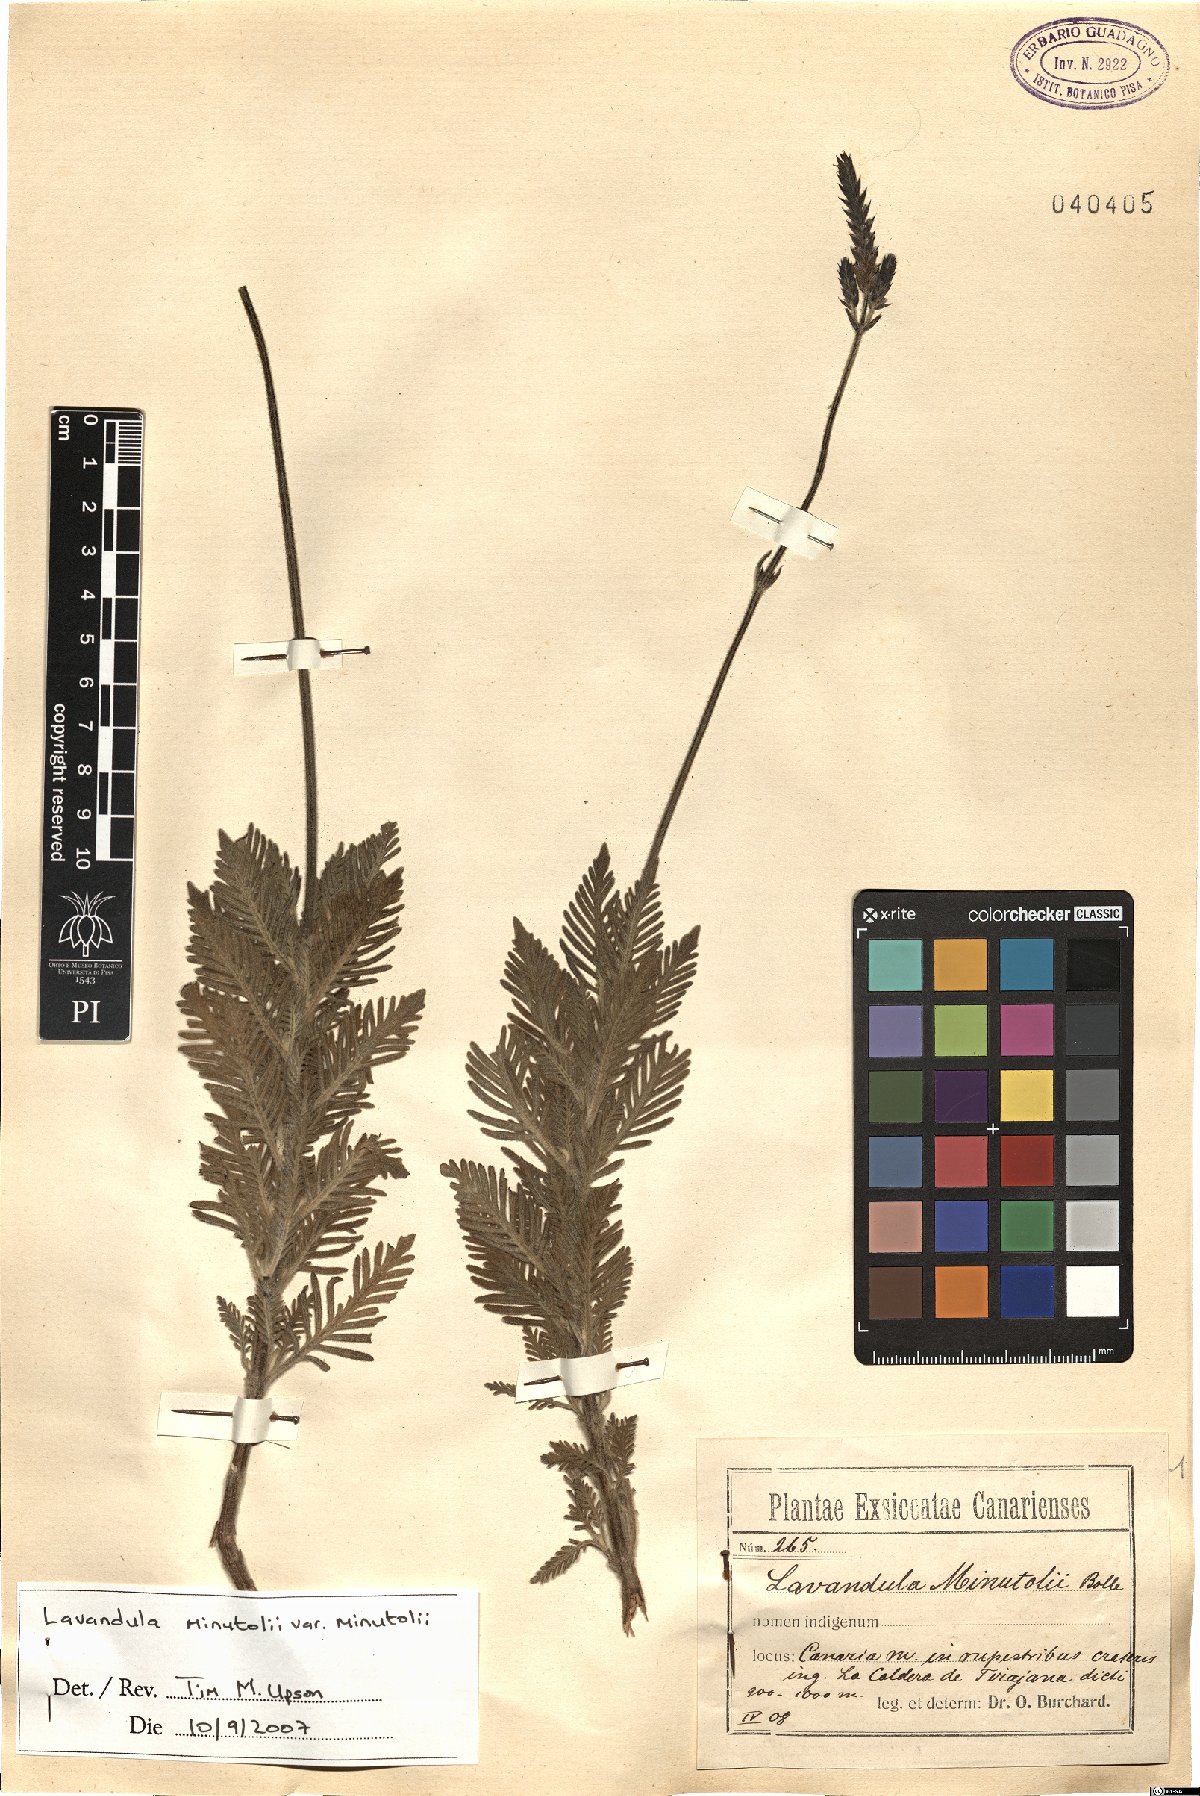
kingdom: Plantae
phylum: Tracheophyta
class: Magnoliopsida
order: Lamiales
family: Lamiaceae
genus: Lavandula
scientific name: Lavandula minutolii
